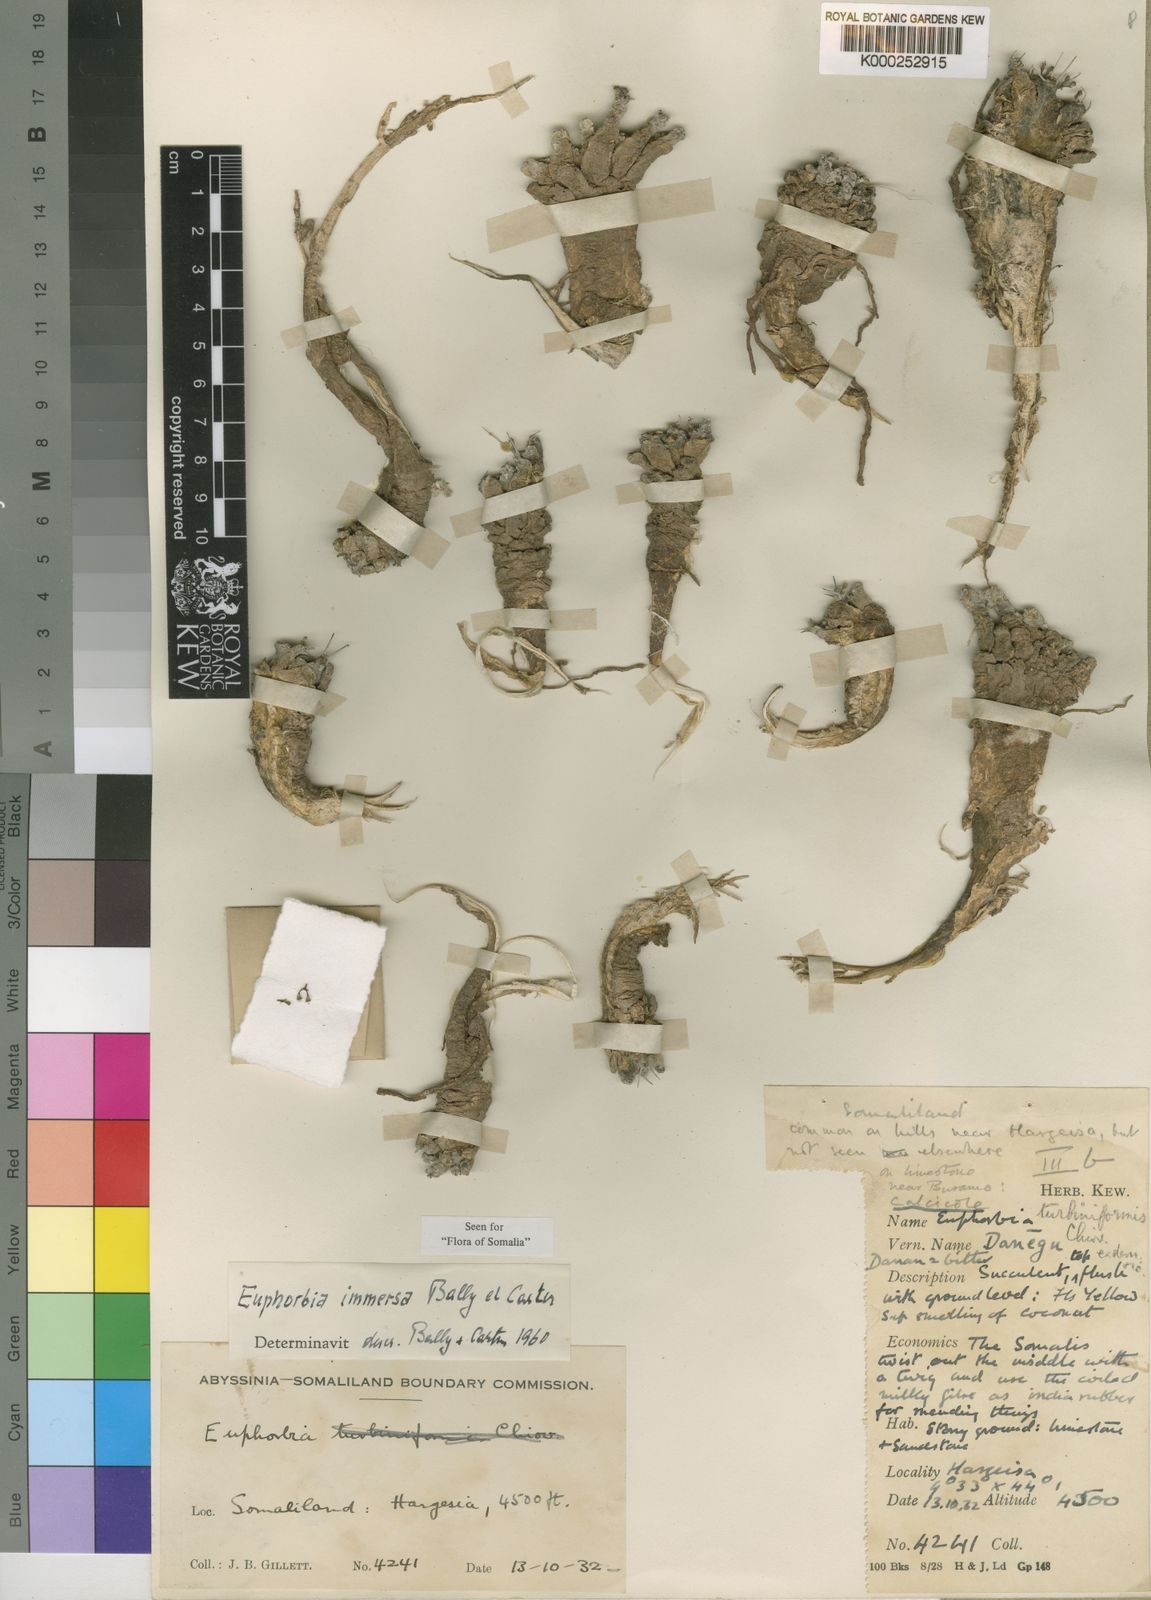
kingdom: Plantae
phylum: Tracheophyta
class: Magnoliopsida
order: Malpighiales
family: Euphorbiaceae
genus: Euphorbia
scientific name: Euphorbia immersa
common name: Denegu
